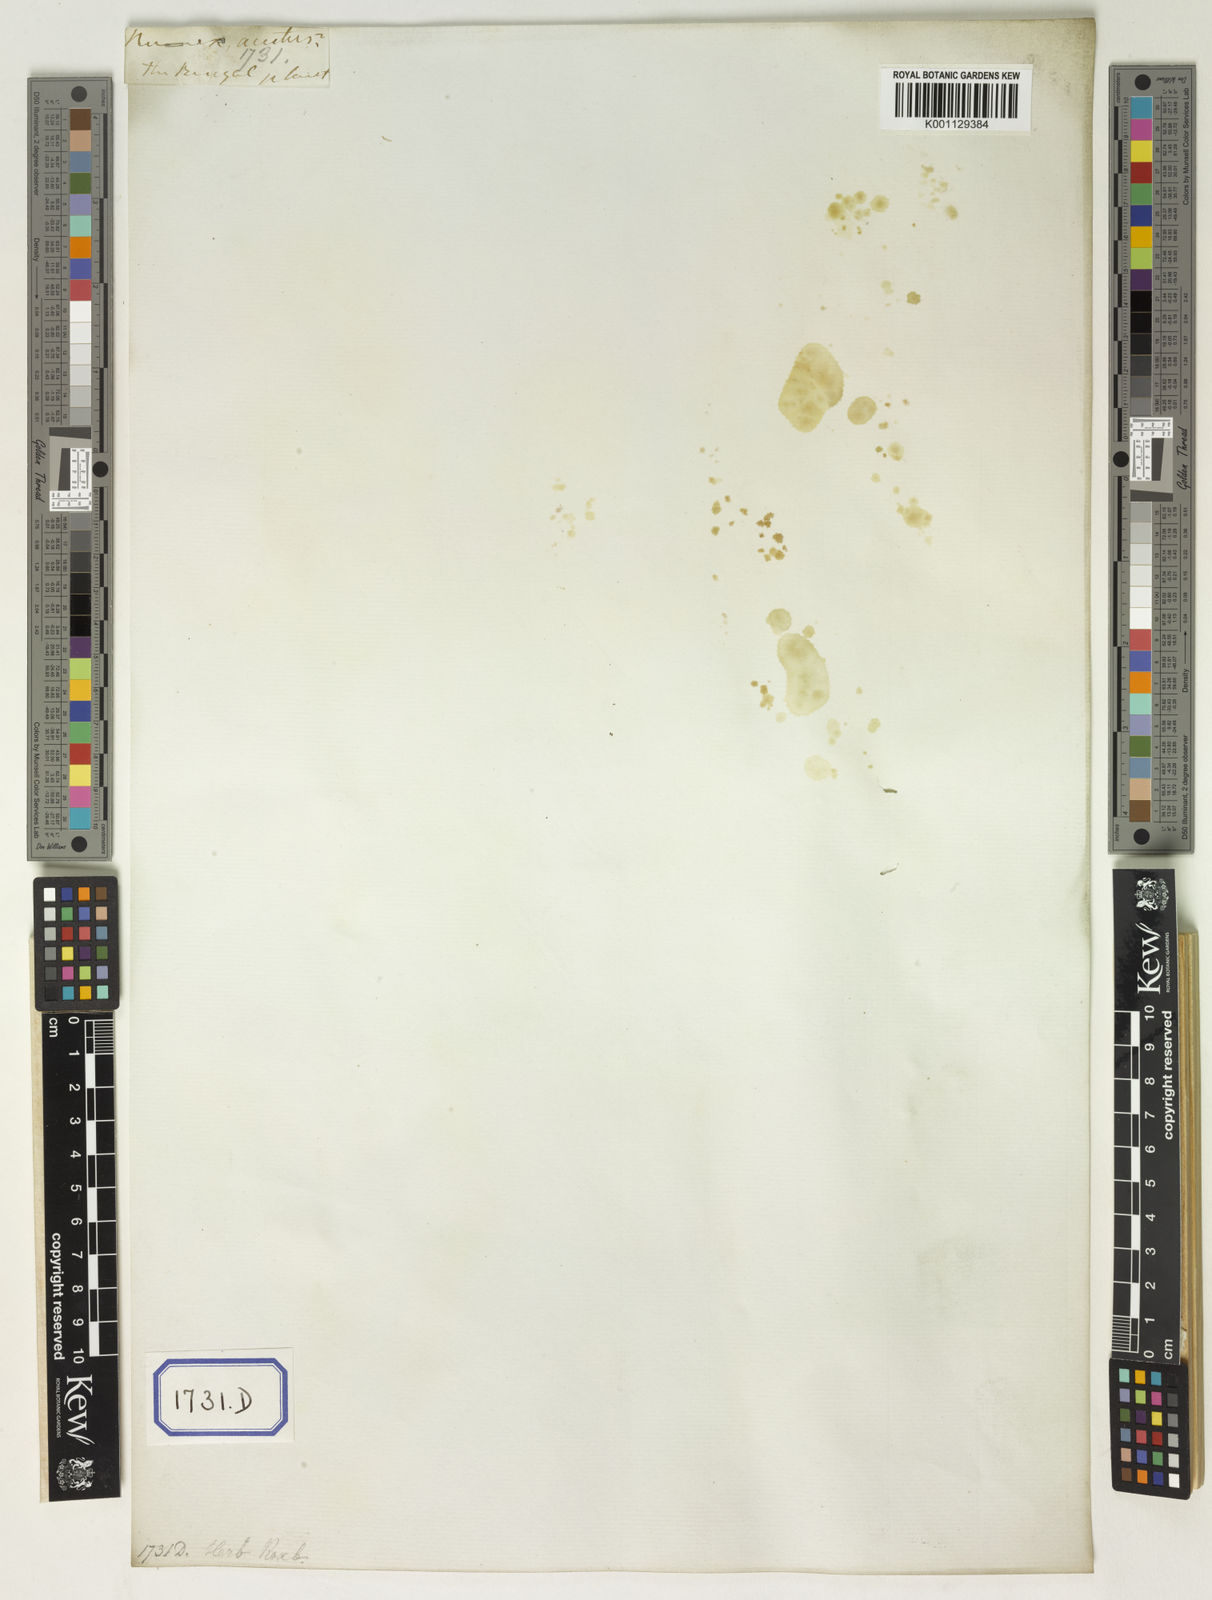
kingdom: Plantae
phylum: Tracheophyta
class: Magnoliopsida
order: Caryophyllales
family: Polygonaceae
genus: Rumex
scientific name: Rumex maritimus
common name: Golden dock
